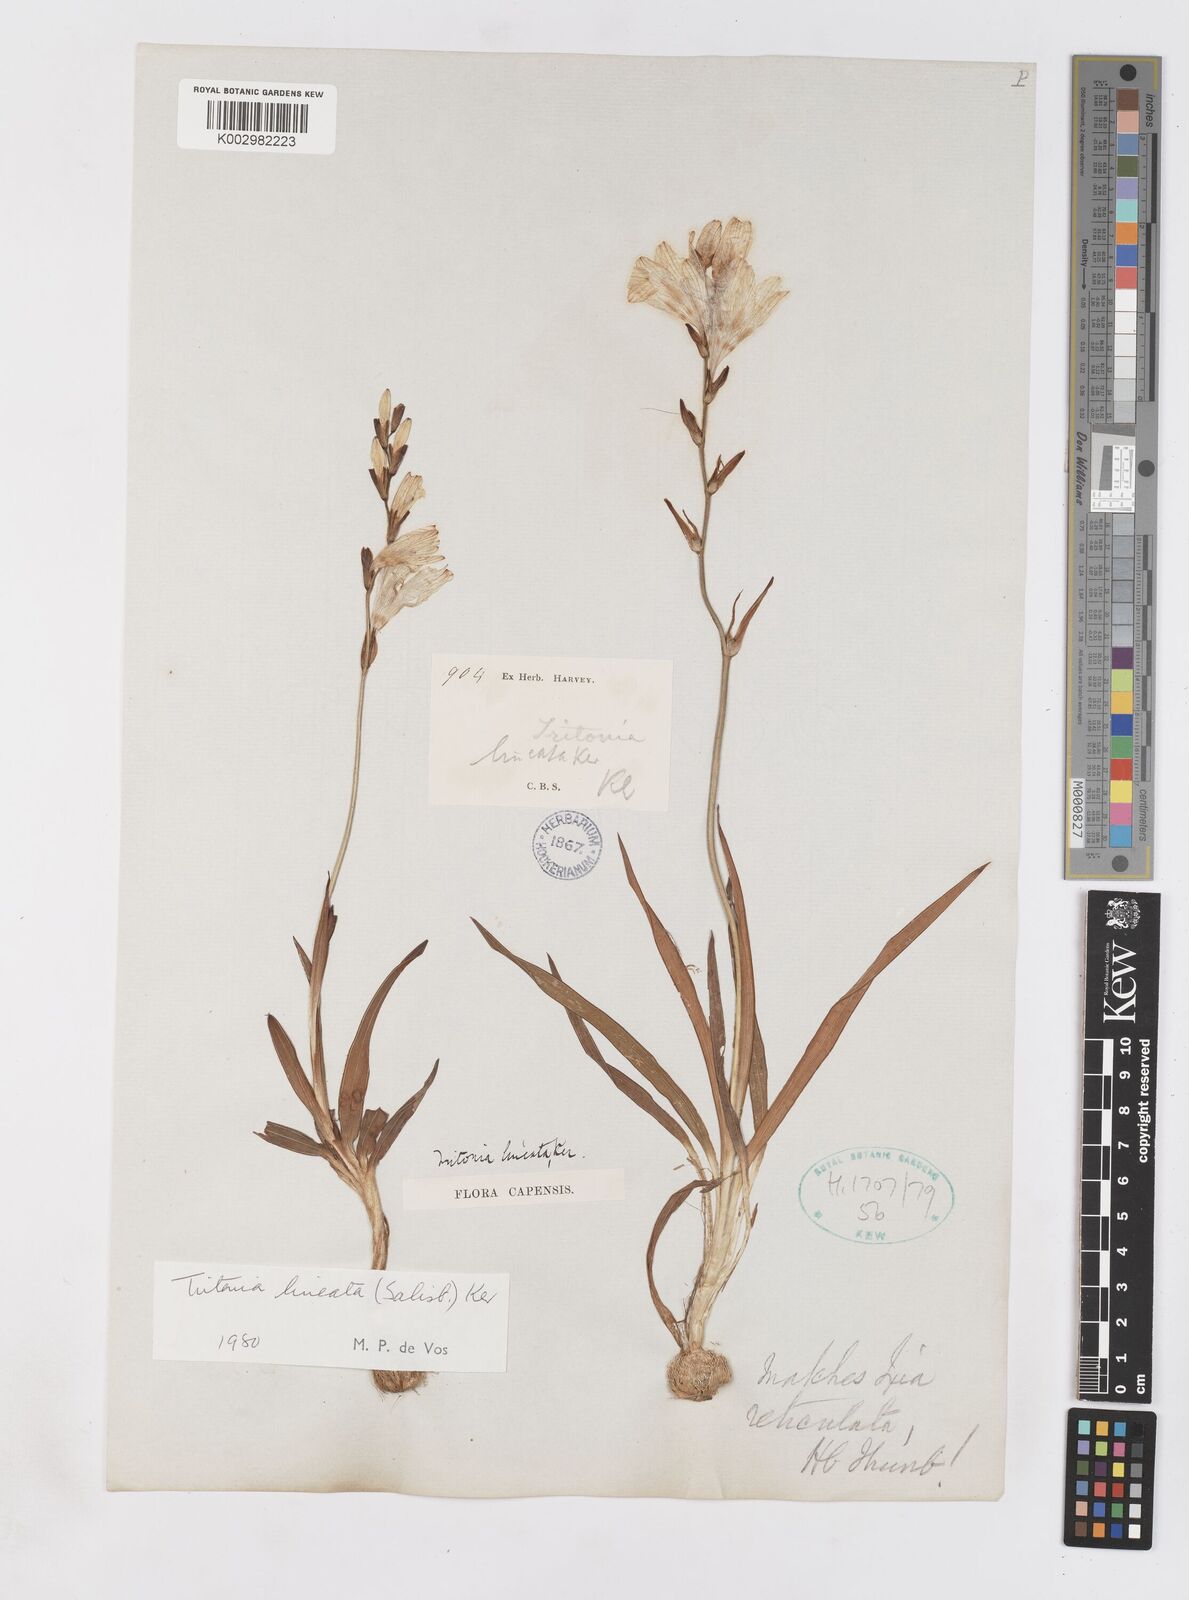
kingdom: Plantae
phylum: Tracheophyta
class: Liliopsida
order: Asparagales
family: Iridaceae
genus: Tritonia
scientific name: Tritonia gladiolaris
